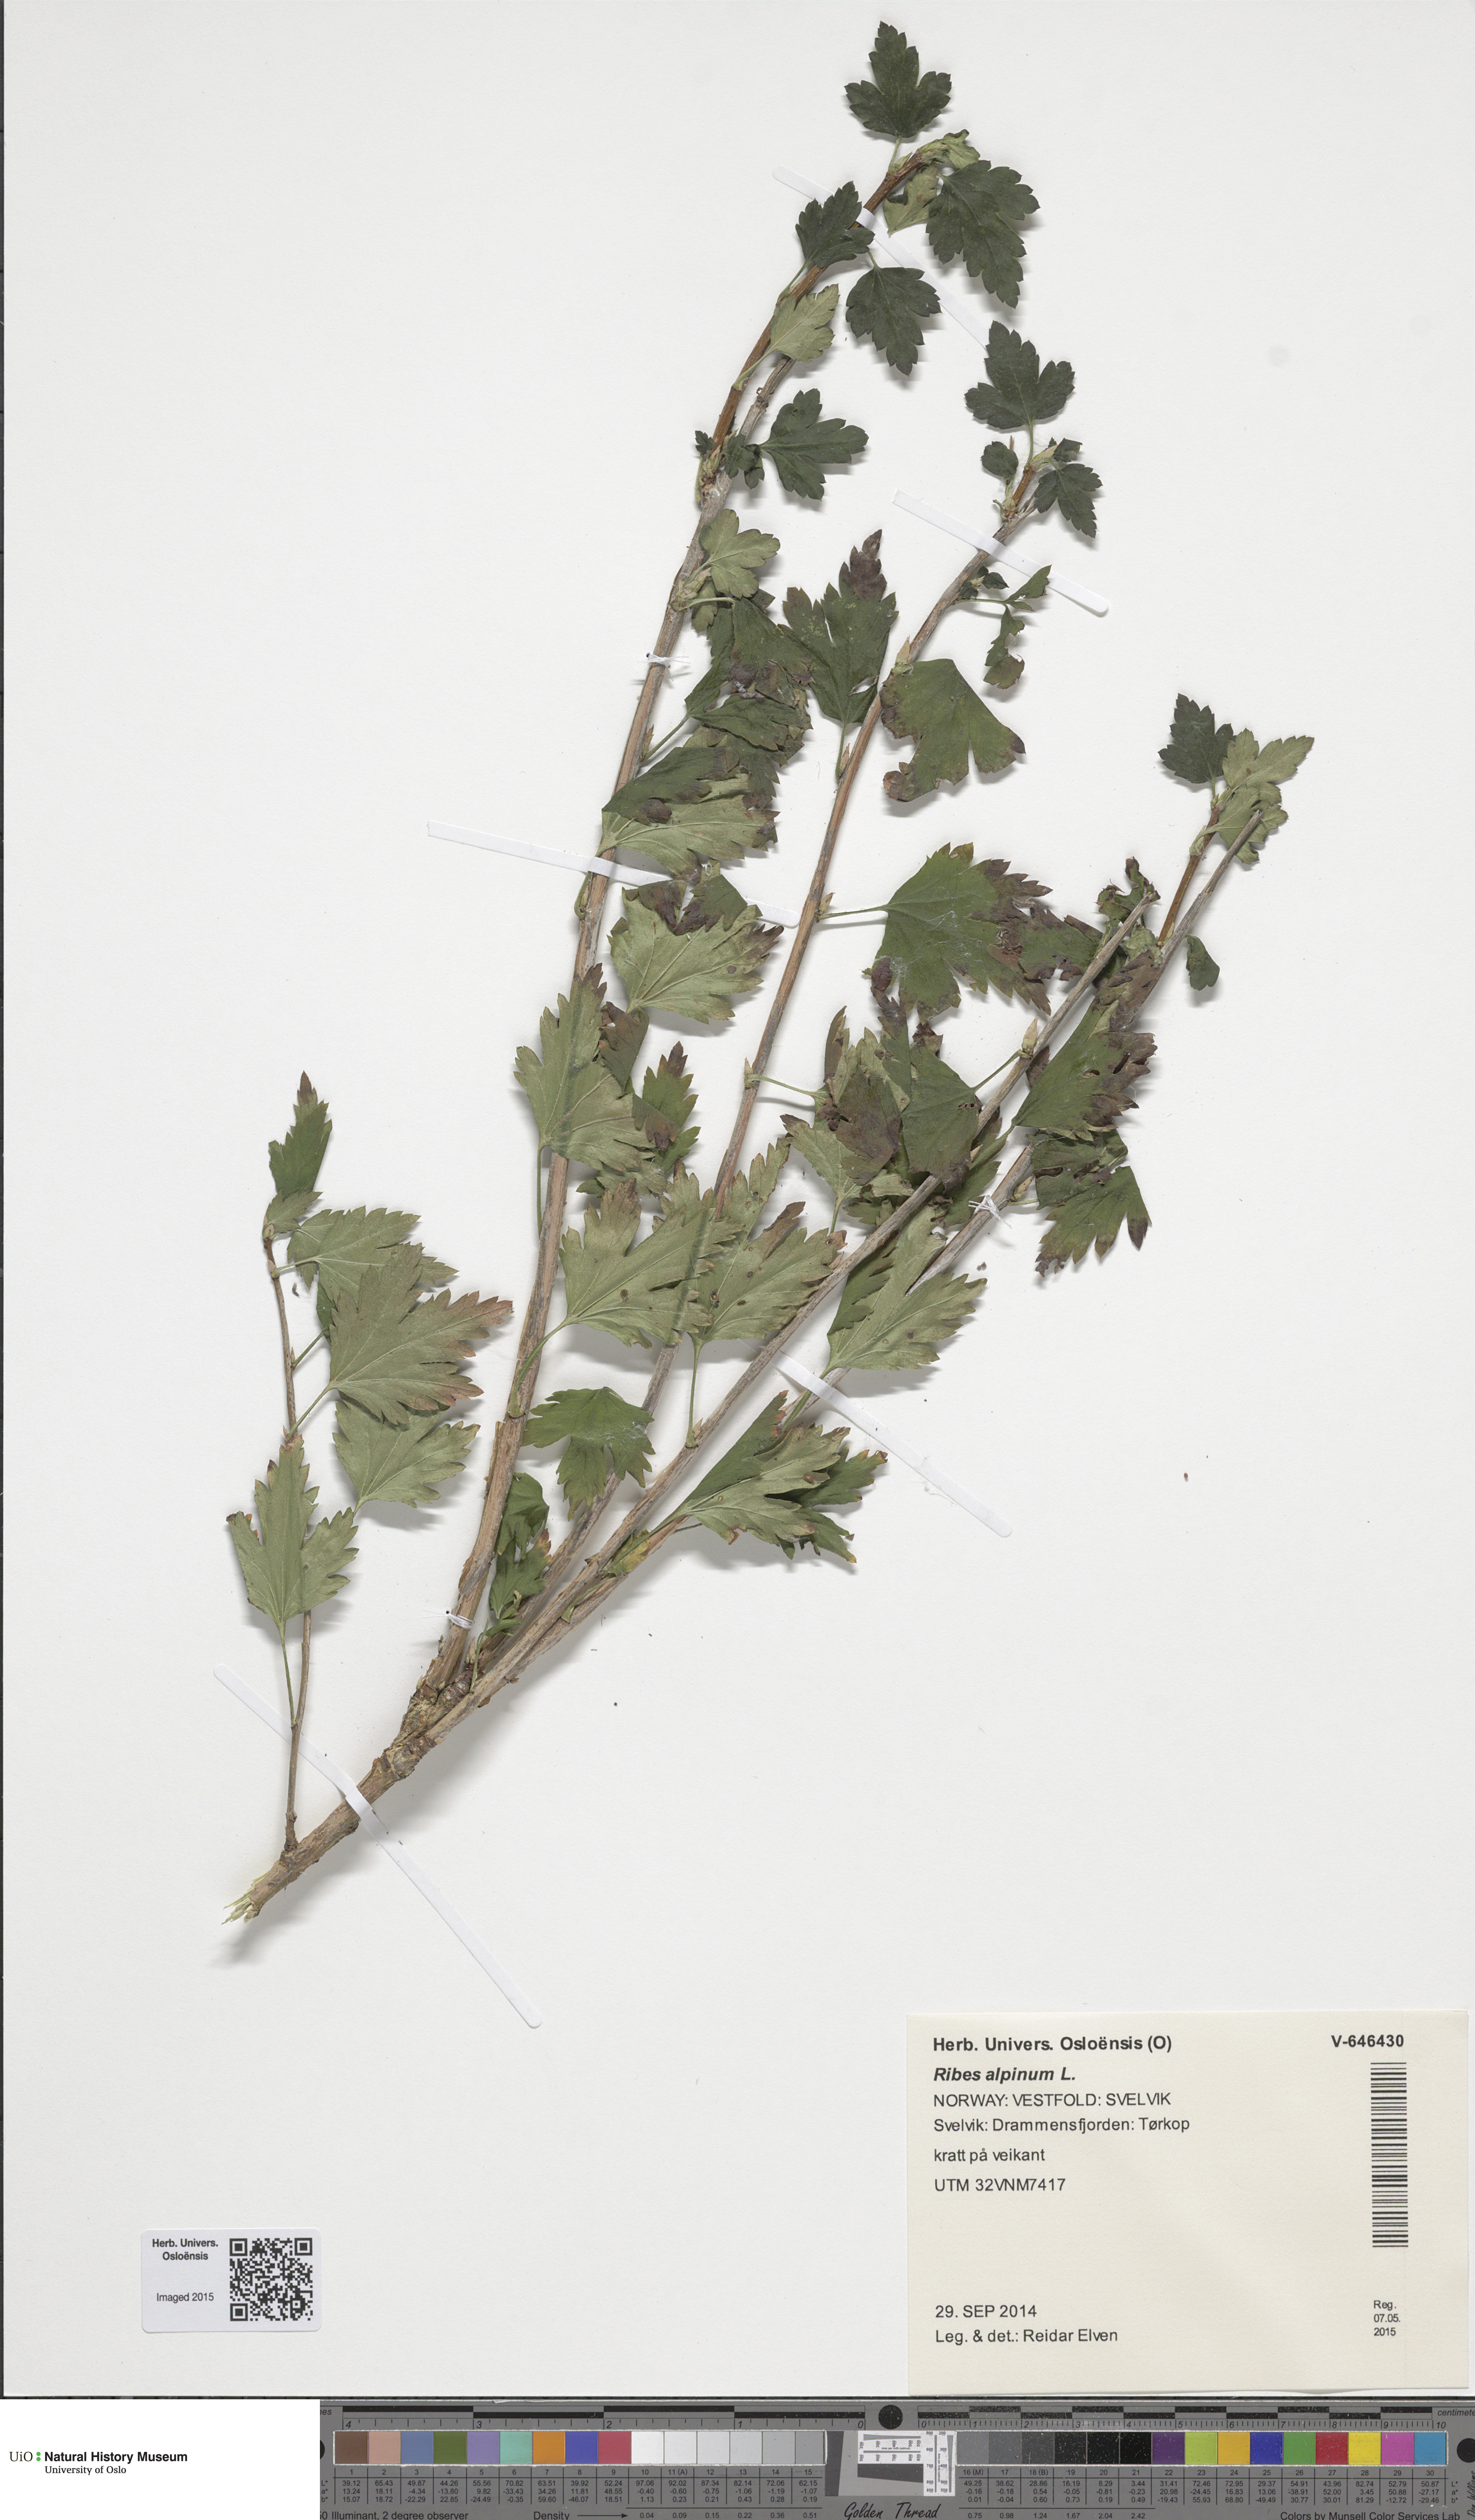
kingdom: Plantae
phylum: Tracheophyta
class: Magnoliopsida
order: Saxifragales
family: Grossulariaceae
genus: Ribes
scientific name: Ribes alpinum
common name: Alpine currant
